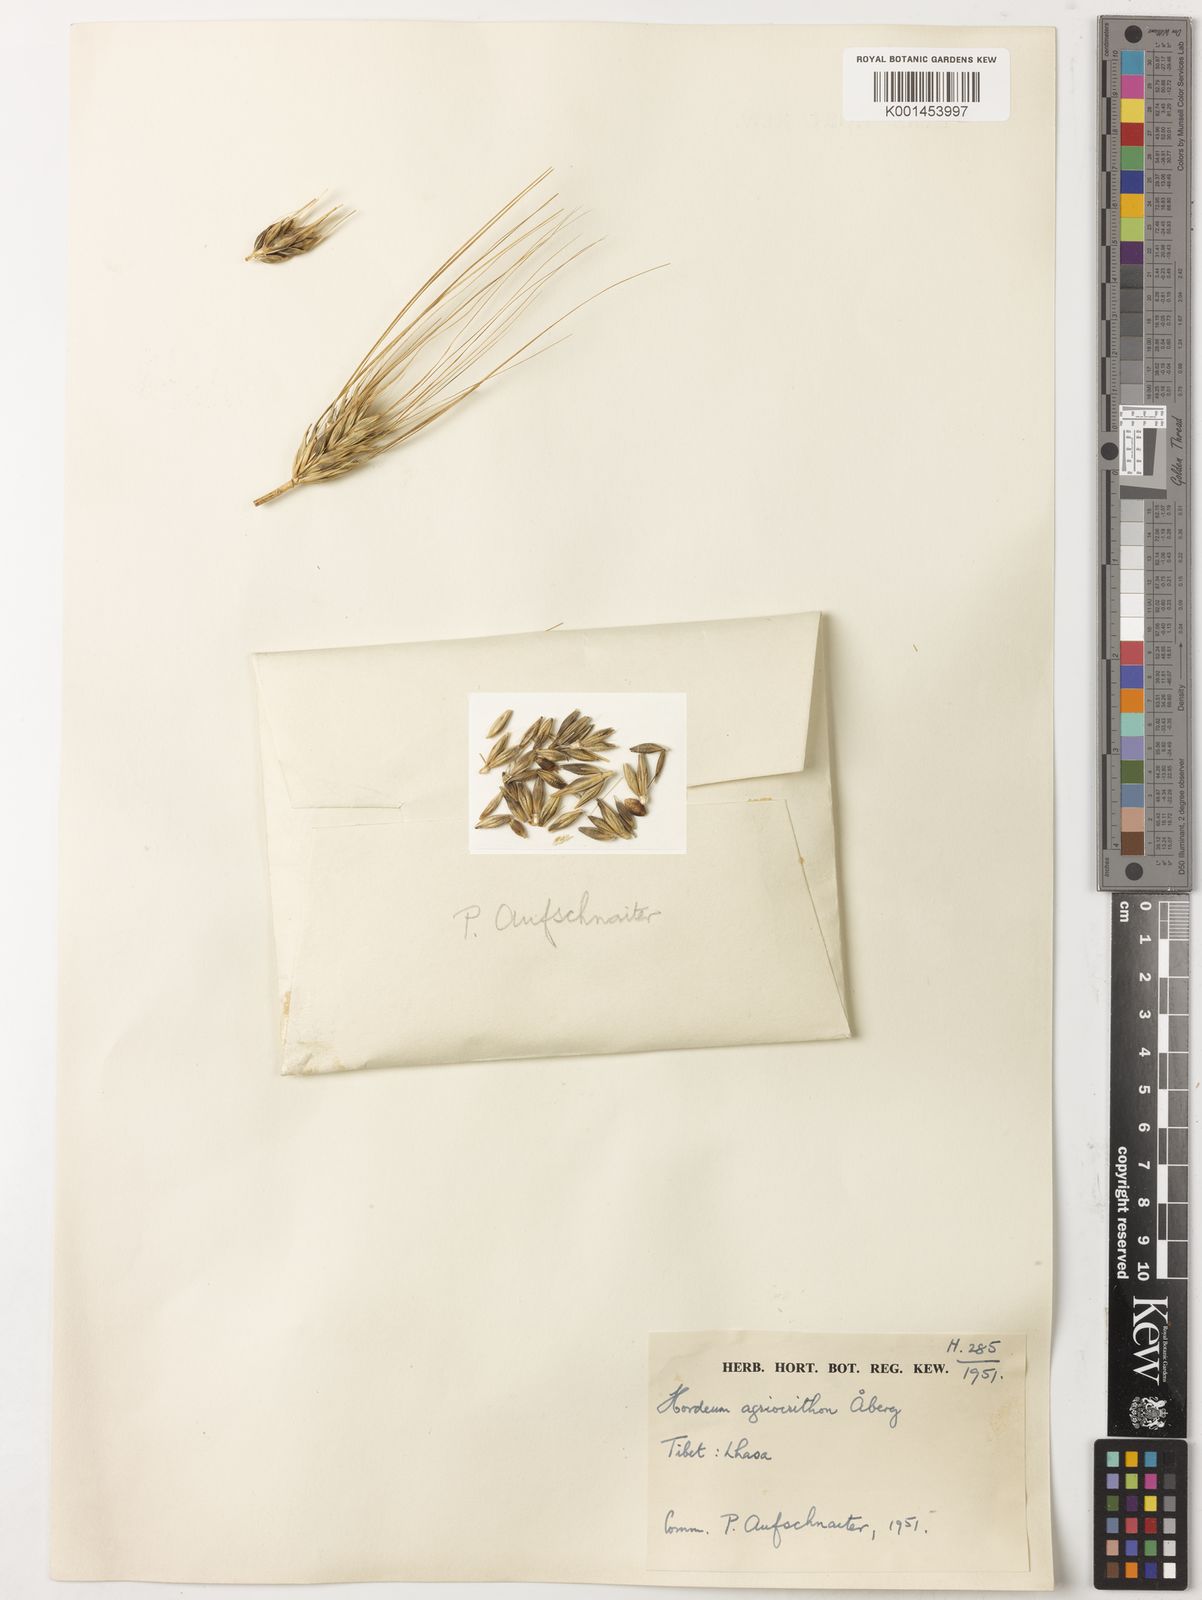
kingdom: Plantae
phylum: Tracheophyta
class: Liliopsida
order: Poales
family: Poaceae
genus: Hordeum
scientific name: Hordeum vulgare
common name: Common barley
